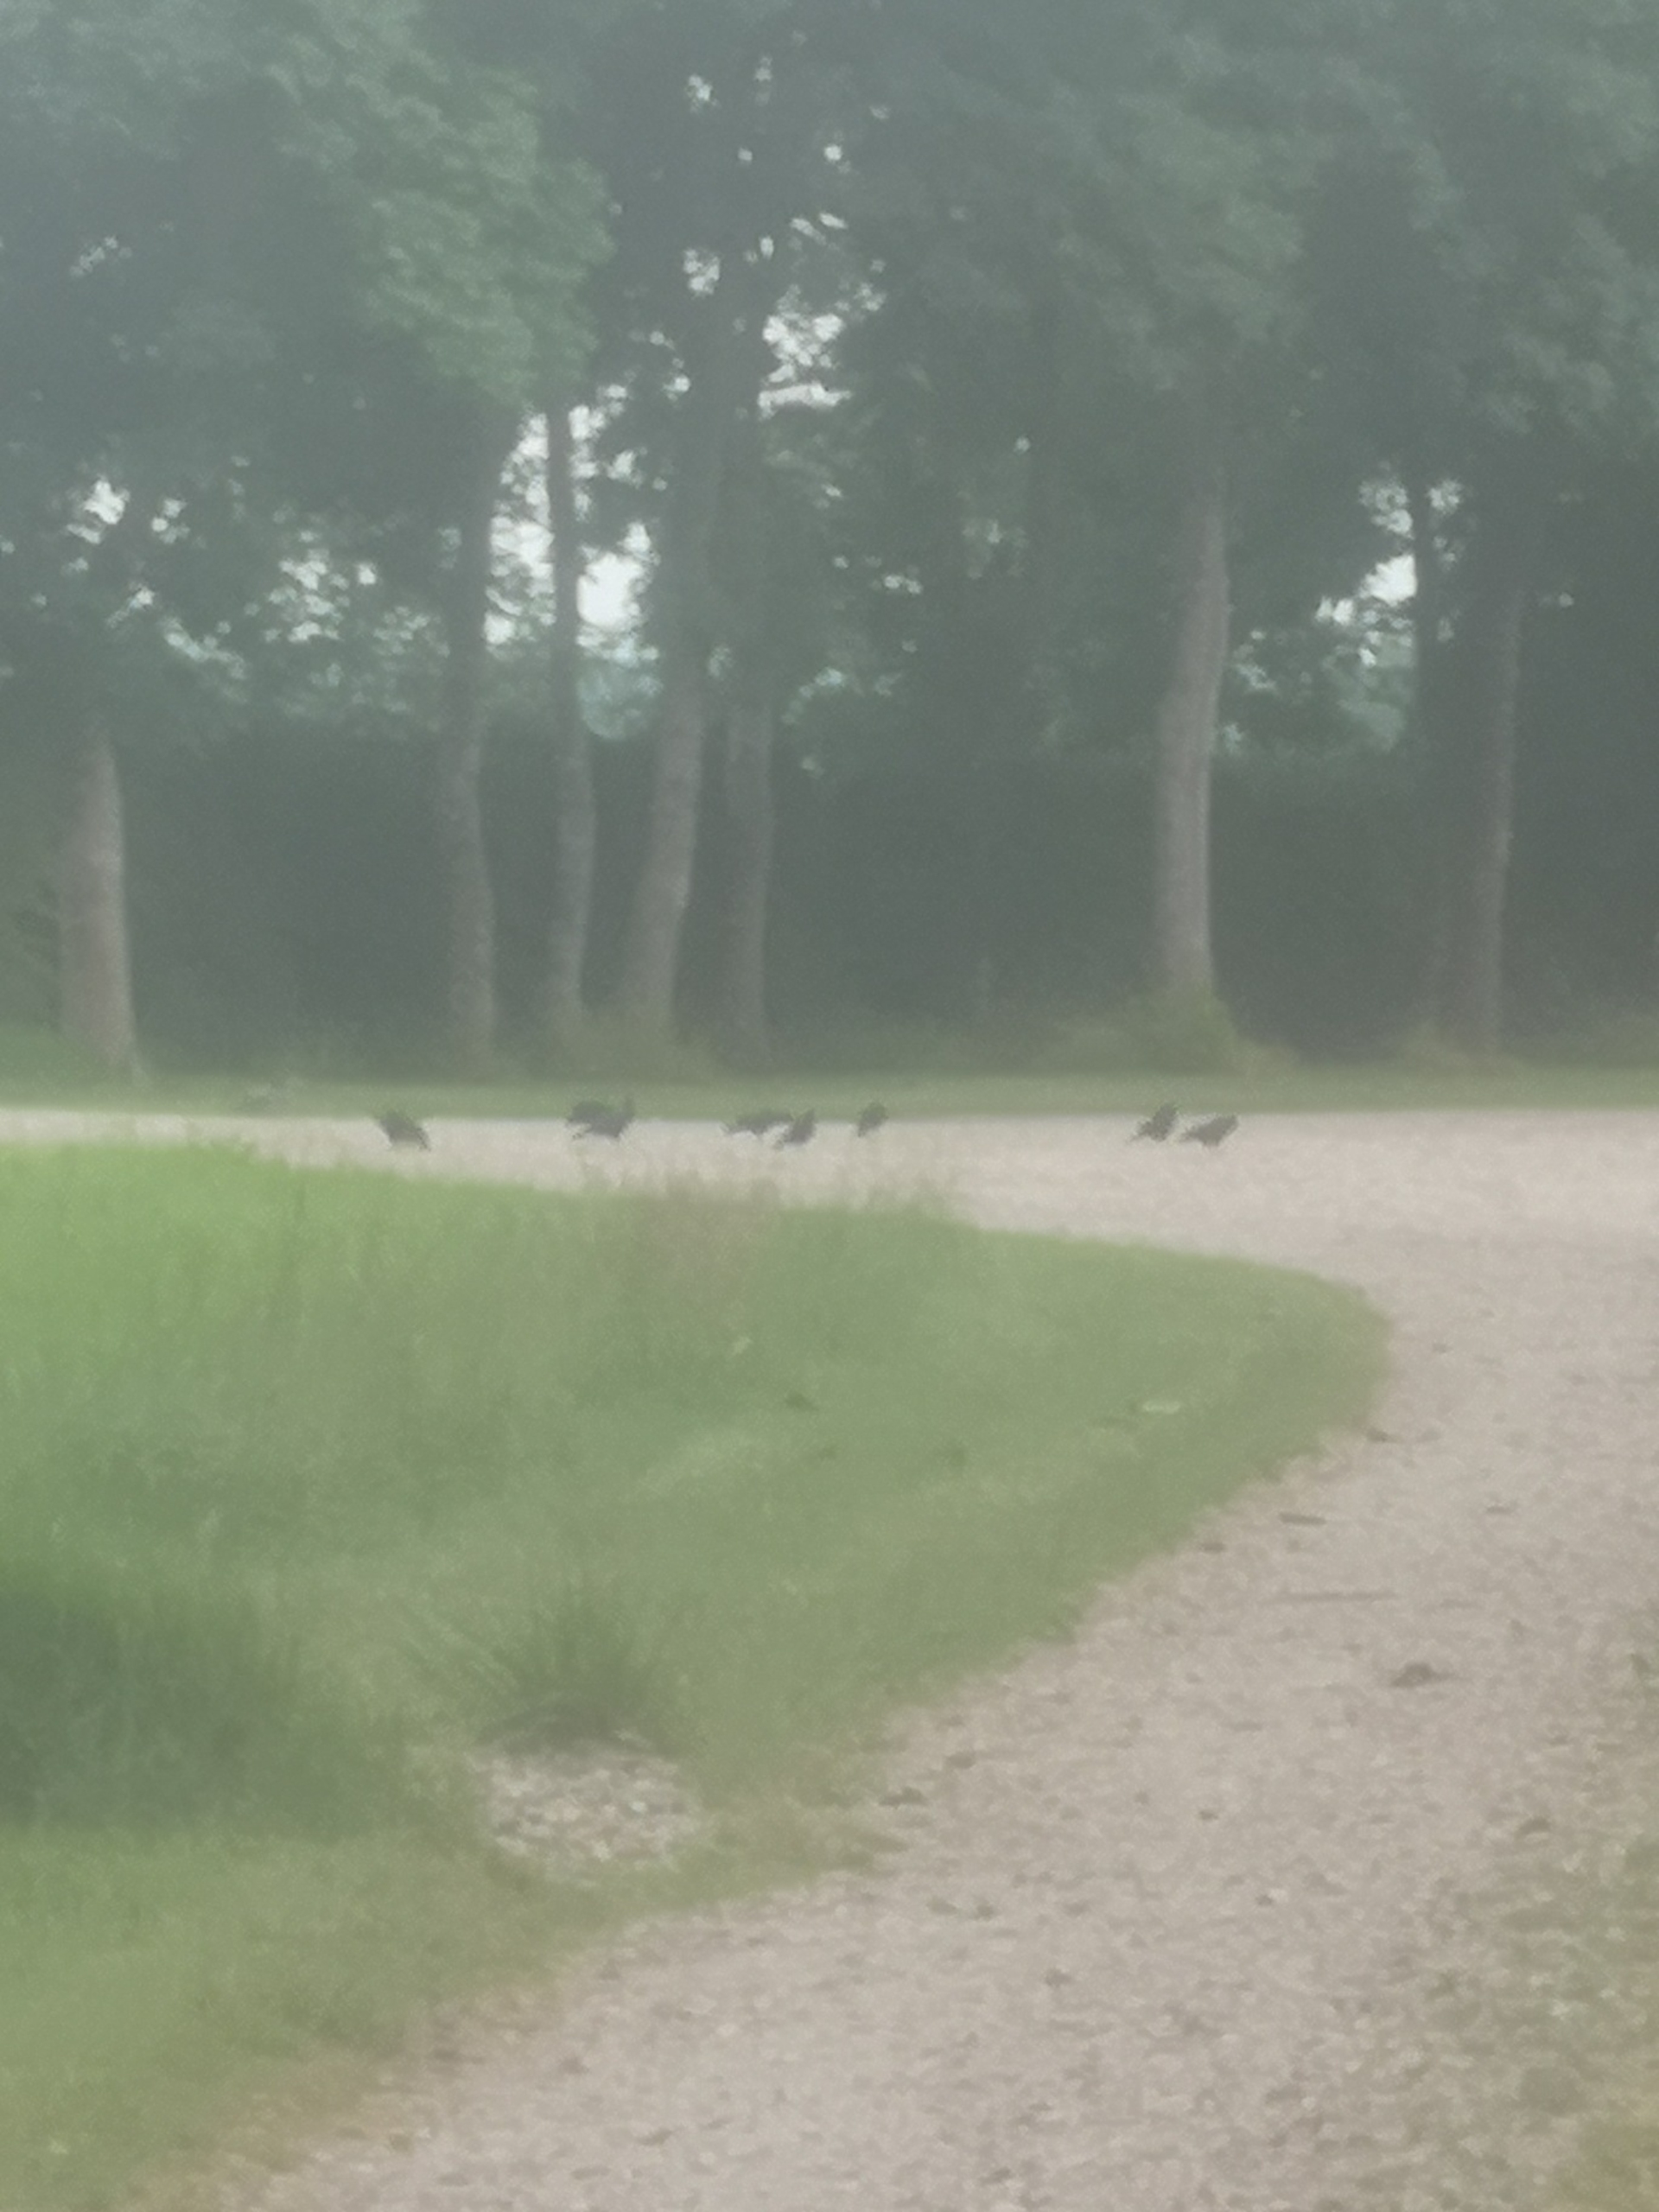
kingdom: Animalia
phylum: Chordata
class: Aves
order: Passeriformes
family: Corvidae
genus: Corvus
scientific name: Corvus frugilegus
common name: Råge
